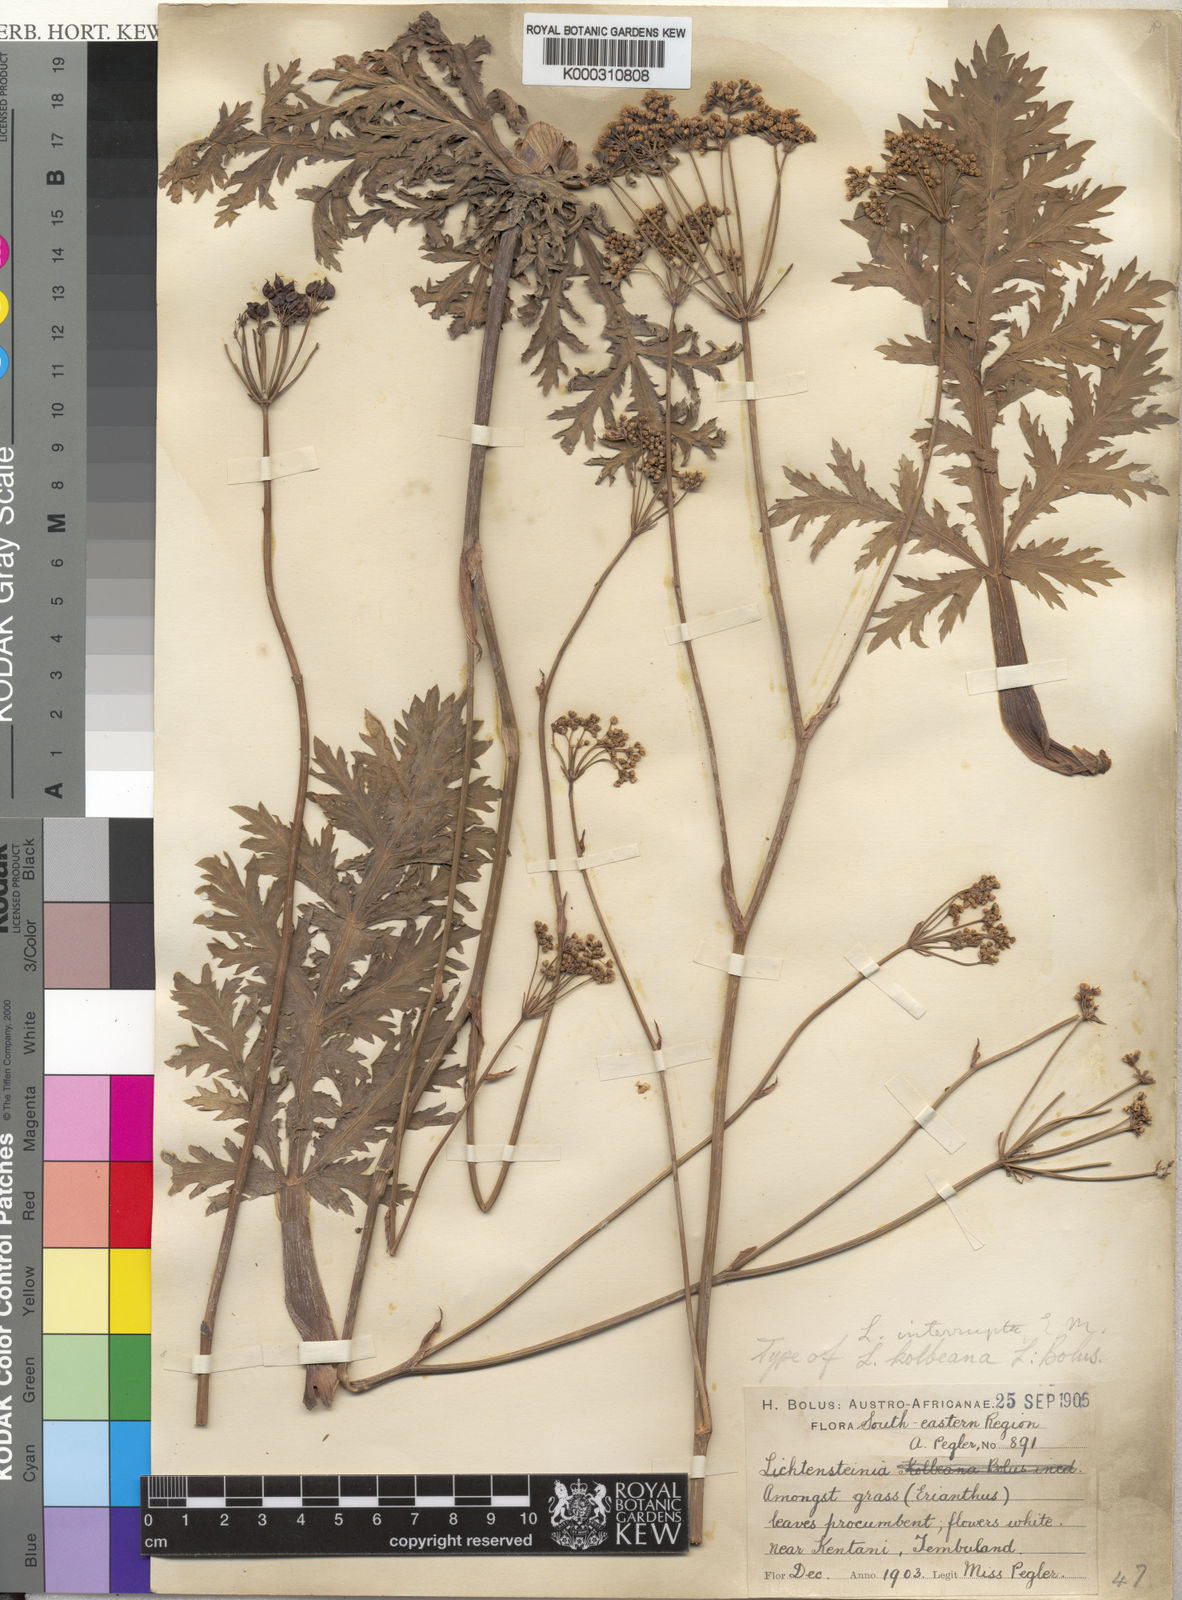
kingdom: Plantae
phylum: Tracheophyta
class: Magnoliopsida
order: Apiales
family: Apiaceae
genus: Lichtensteinia
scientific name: Lichtensteinia interrupta
